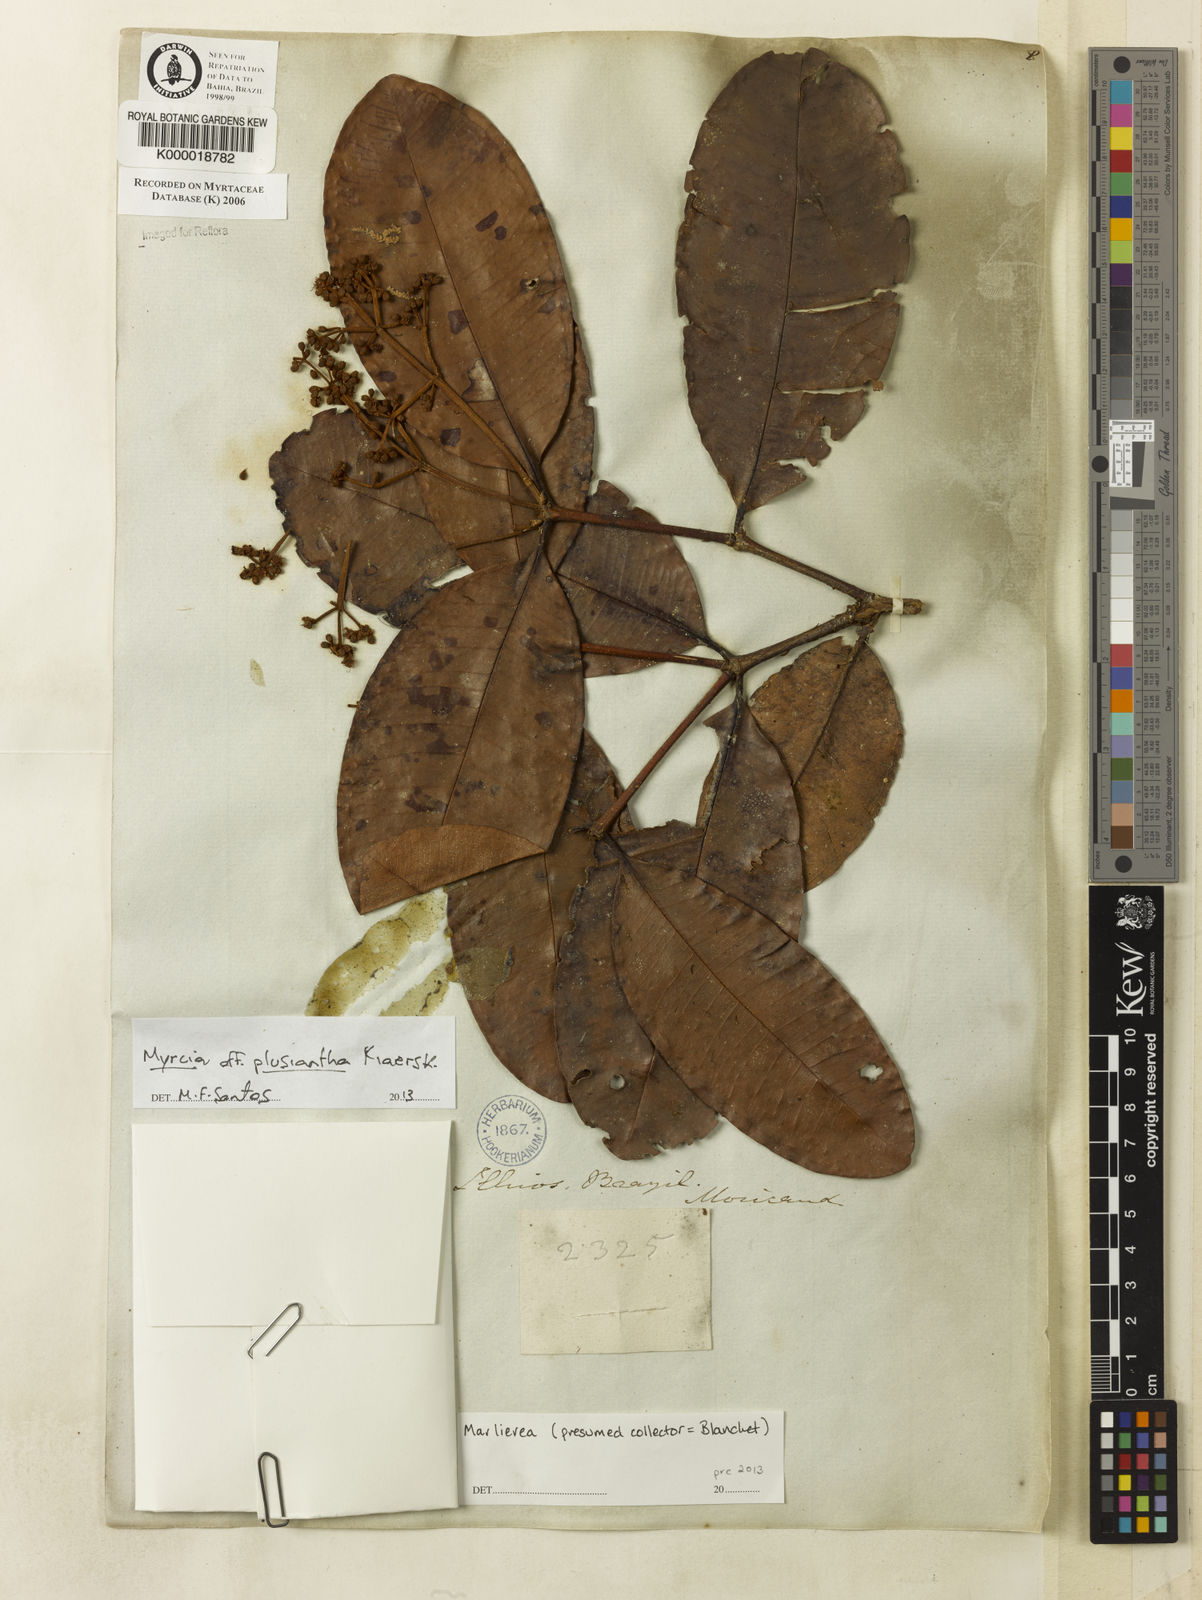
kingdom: Plantae
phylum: Tracheophyta
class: Magnoliopsida
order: Myrtales
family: Myrtaceae
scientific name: Myrtaceae
